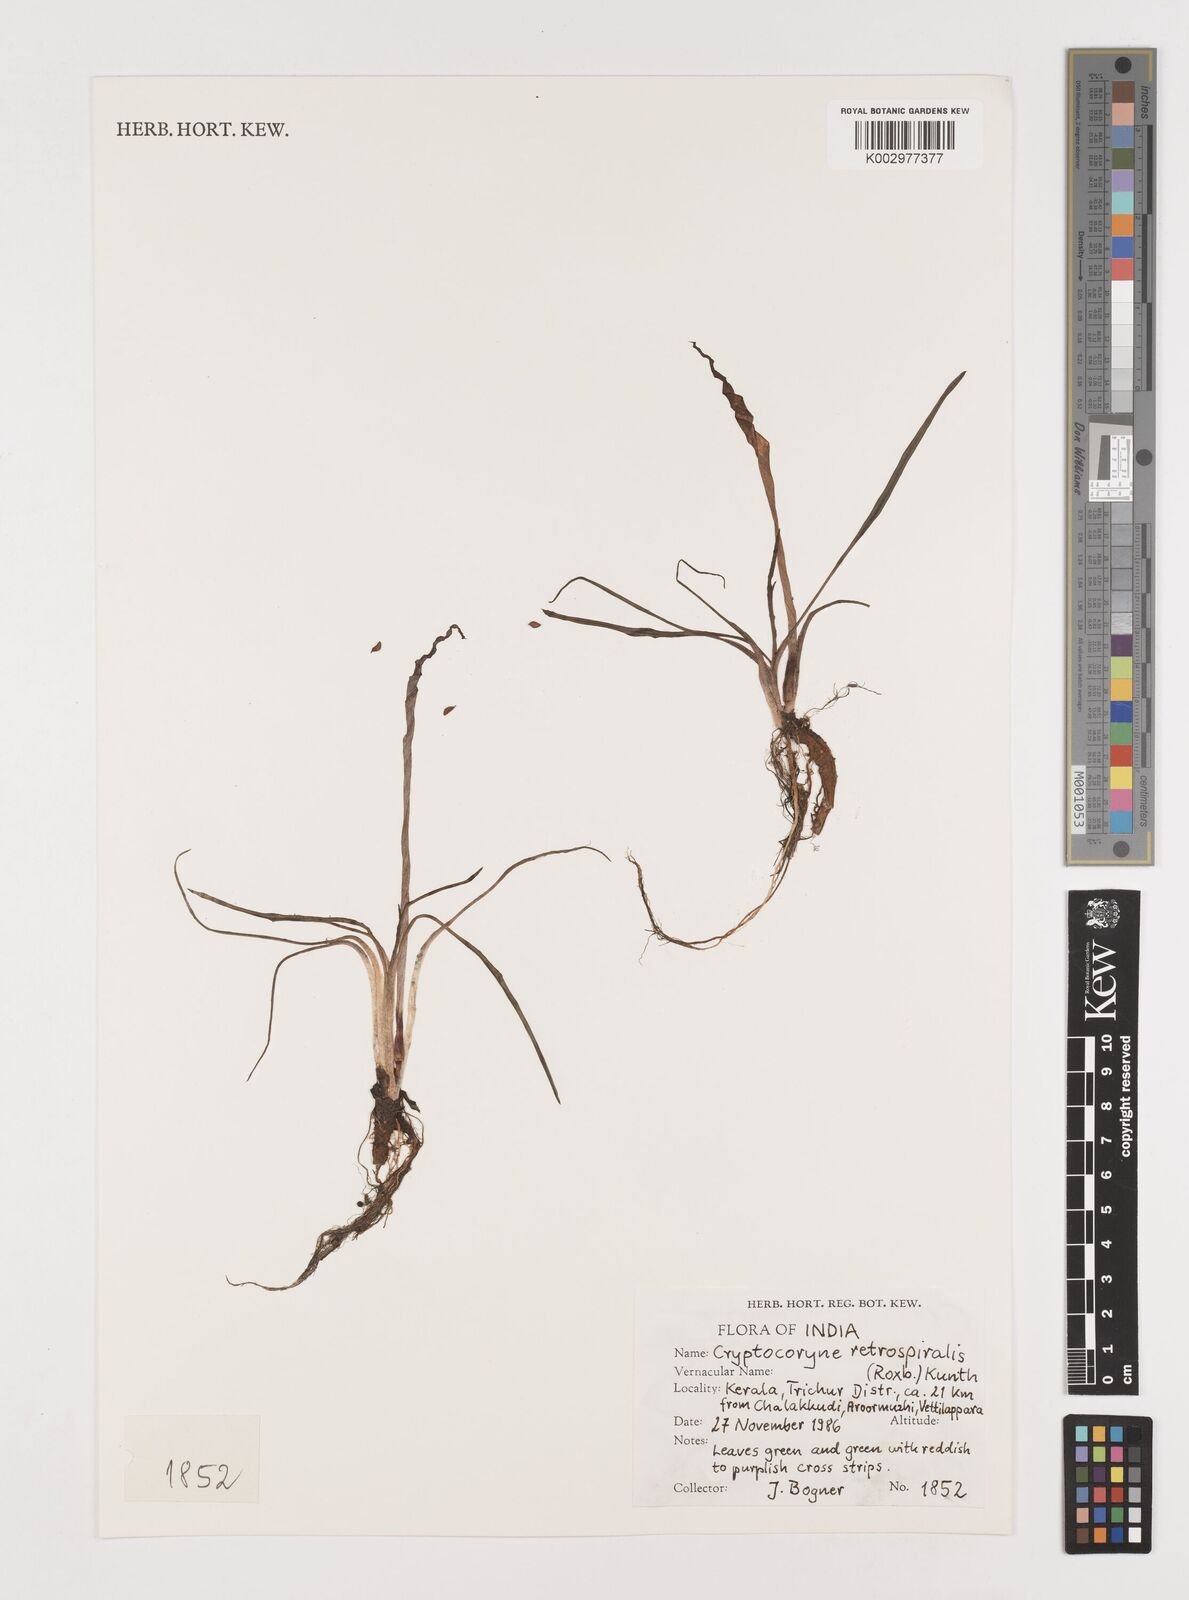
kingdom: Plantae
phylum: Tracheophyta
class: Liliopsida
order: Alismatales
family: Araceae
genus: Cryptocoryne
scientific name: Cryptocoryne retrospiralis
